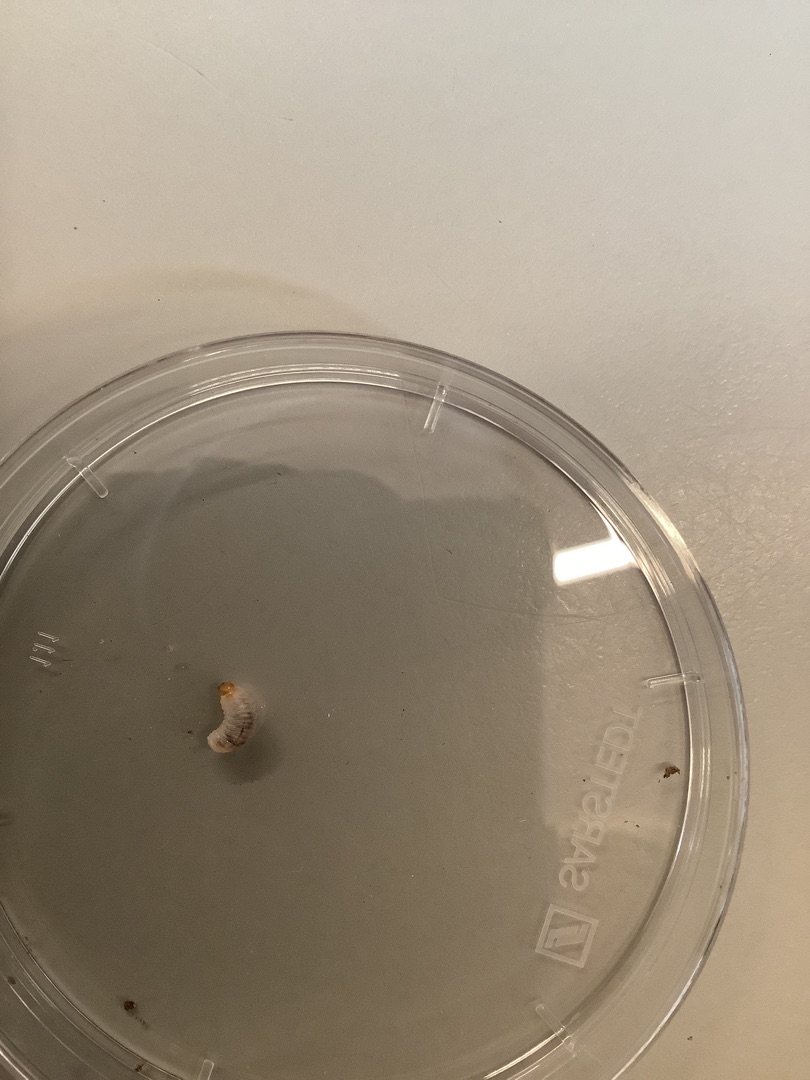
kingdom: Animalia
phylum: Arthropoda
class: Insecta
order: Coleoptera
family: Curculionidae
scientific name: Curculionidae
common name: Snudebiller
